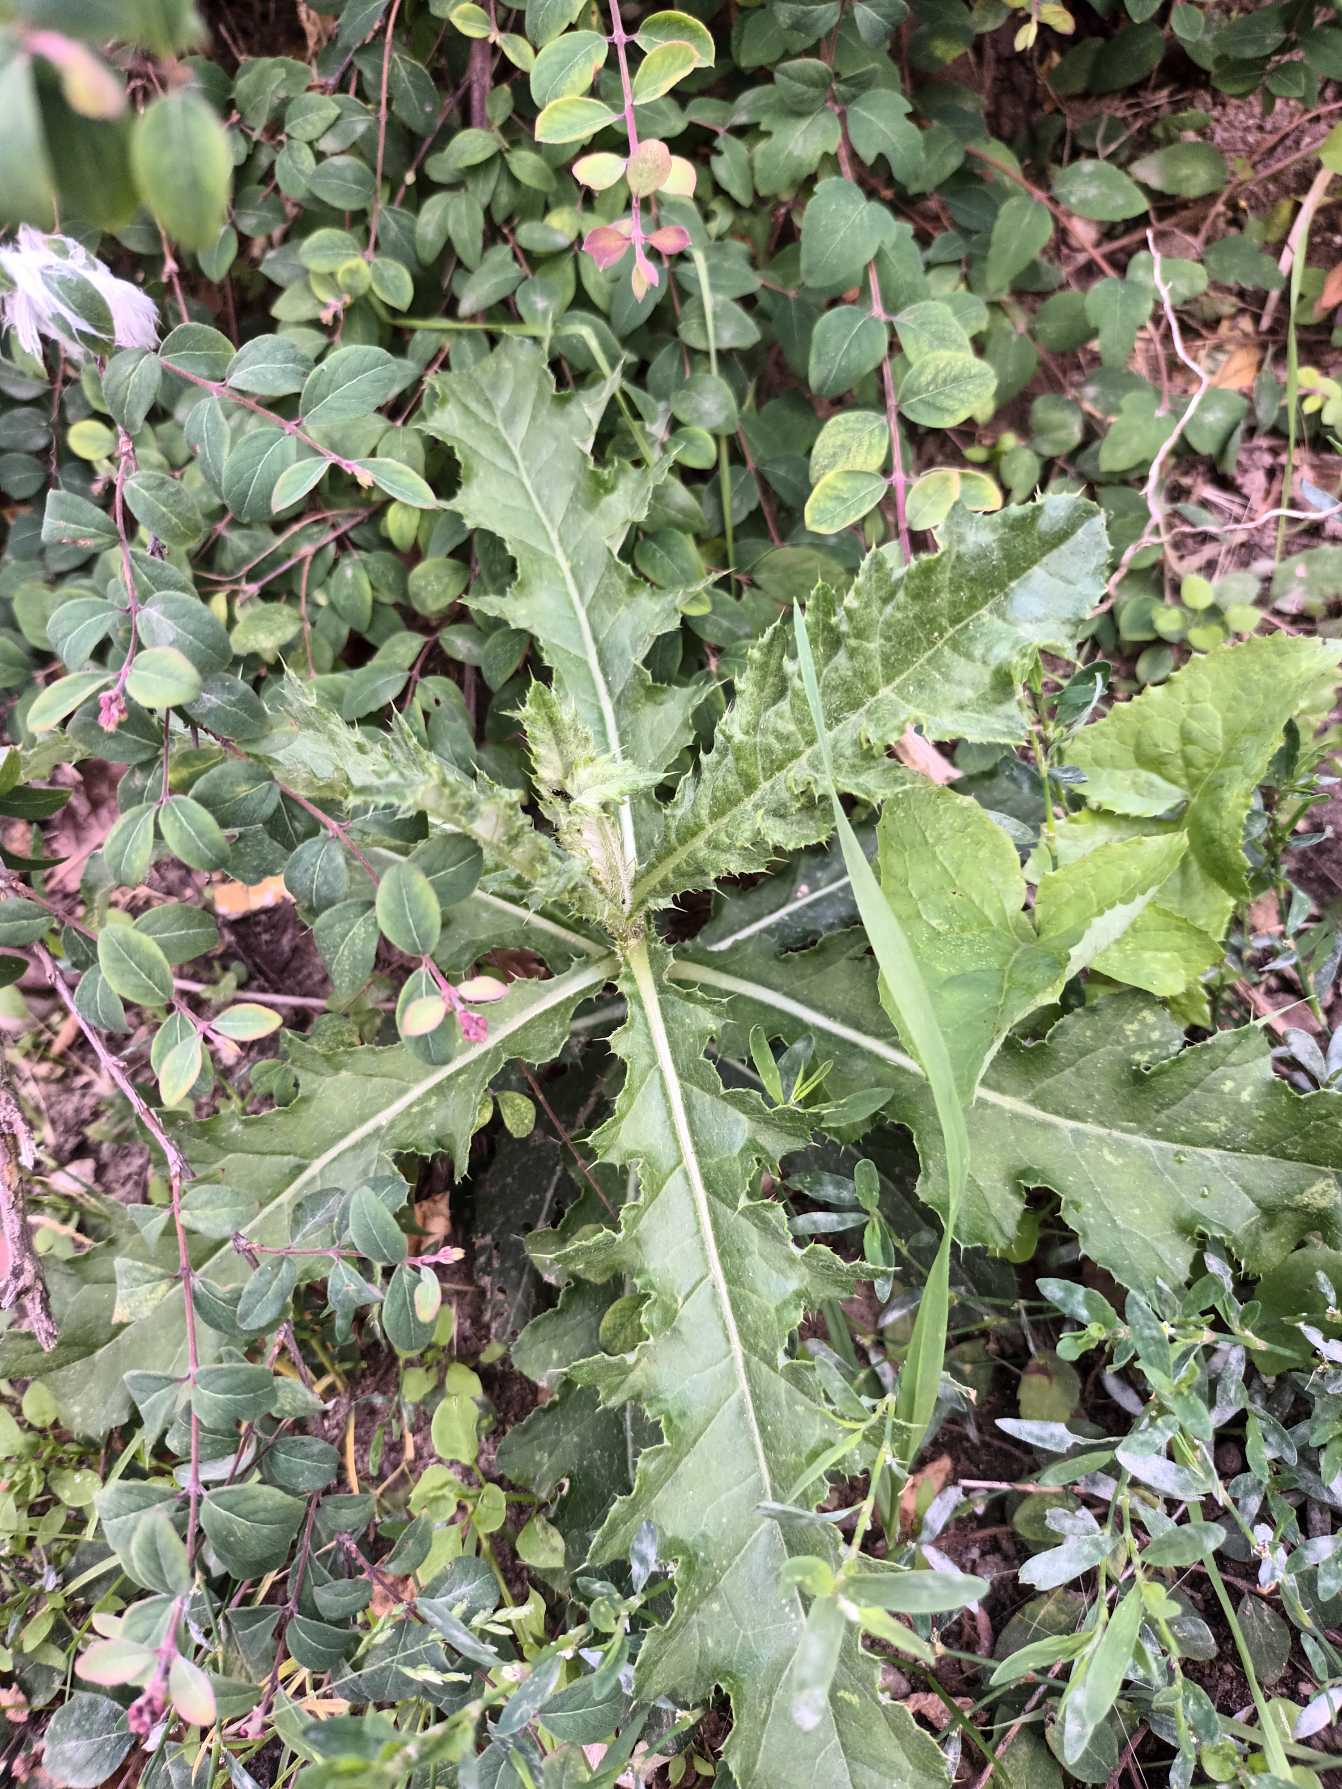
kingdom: Plantae
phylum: Tracheophyta
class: Magnoliopsida
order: Asterales
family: Asteraceae
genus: Cirsium
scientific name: Cirsium arvense
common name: Ager-tidsel
